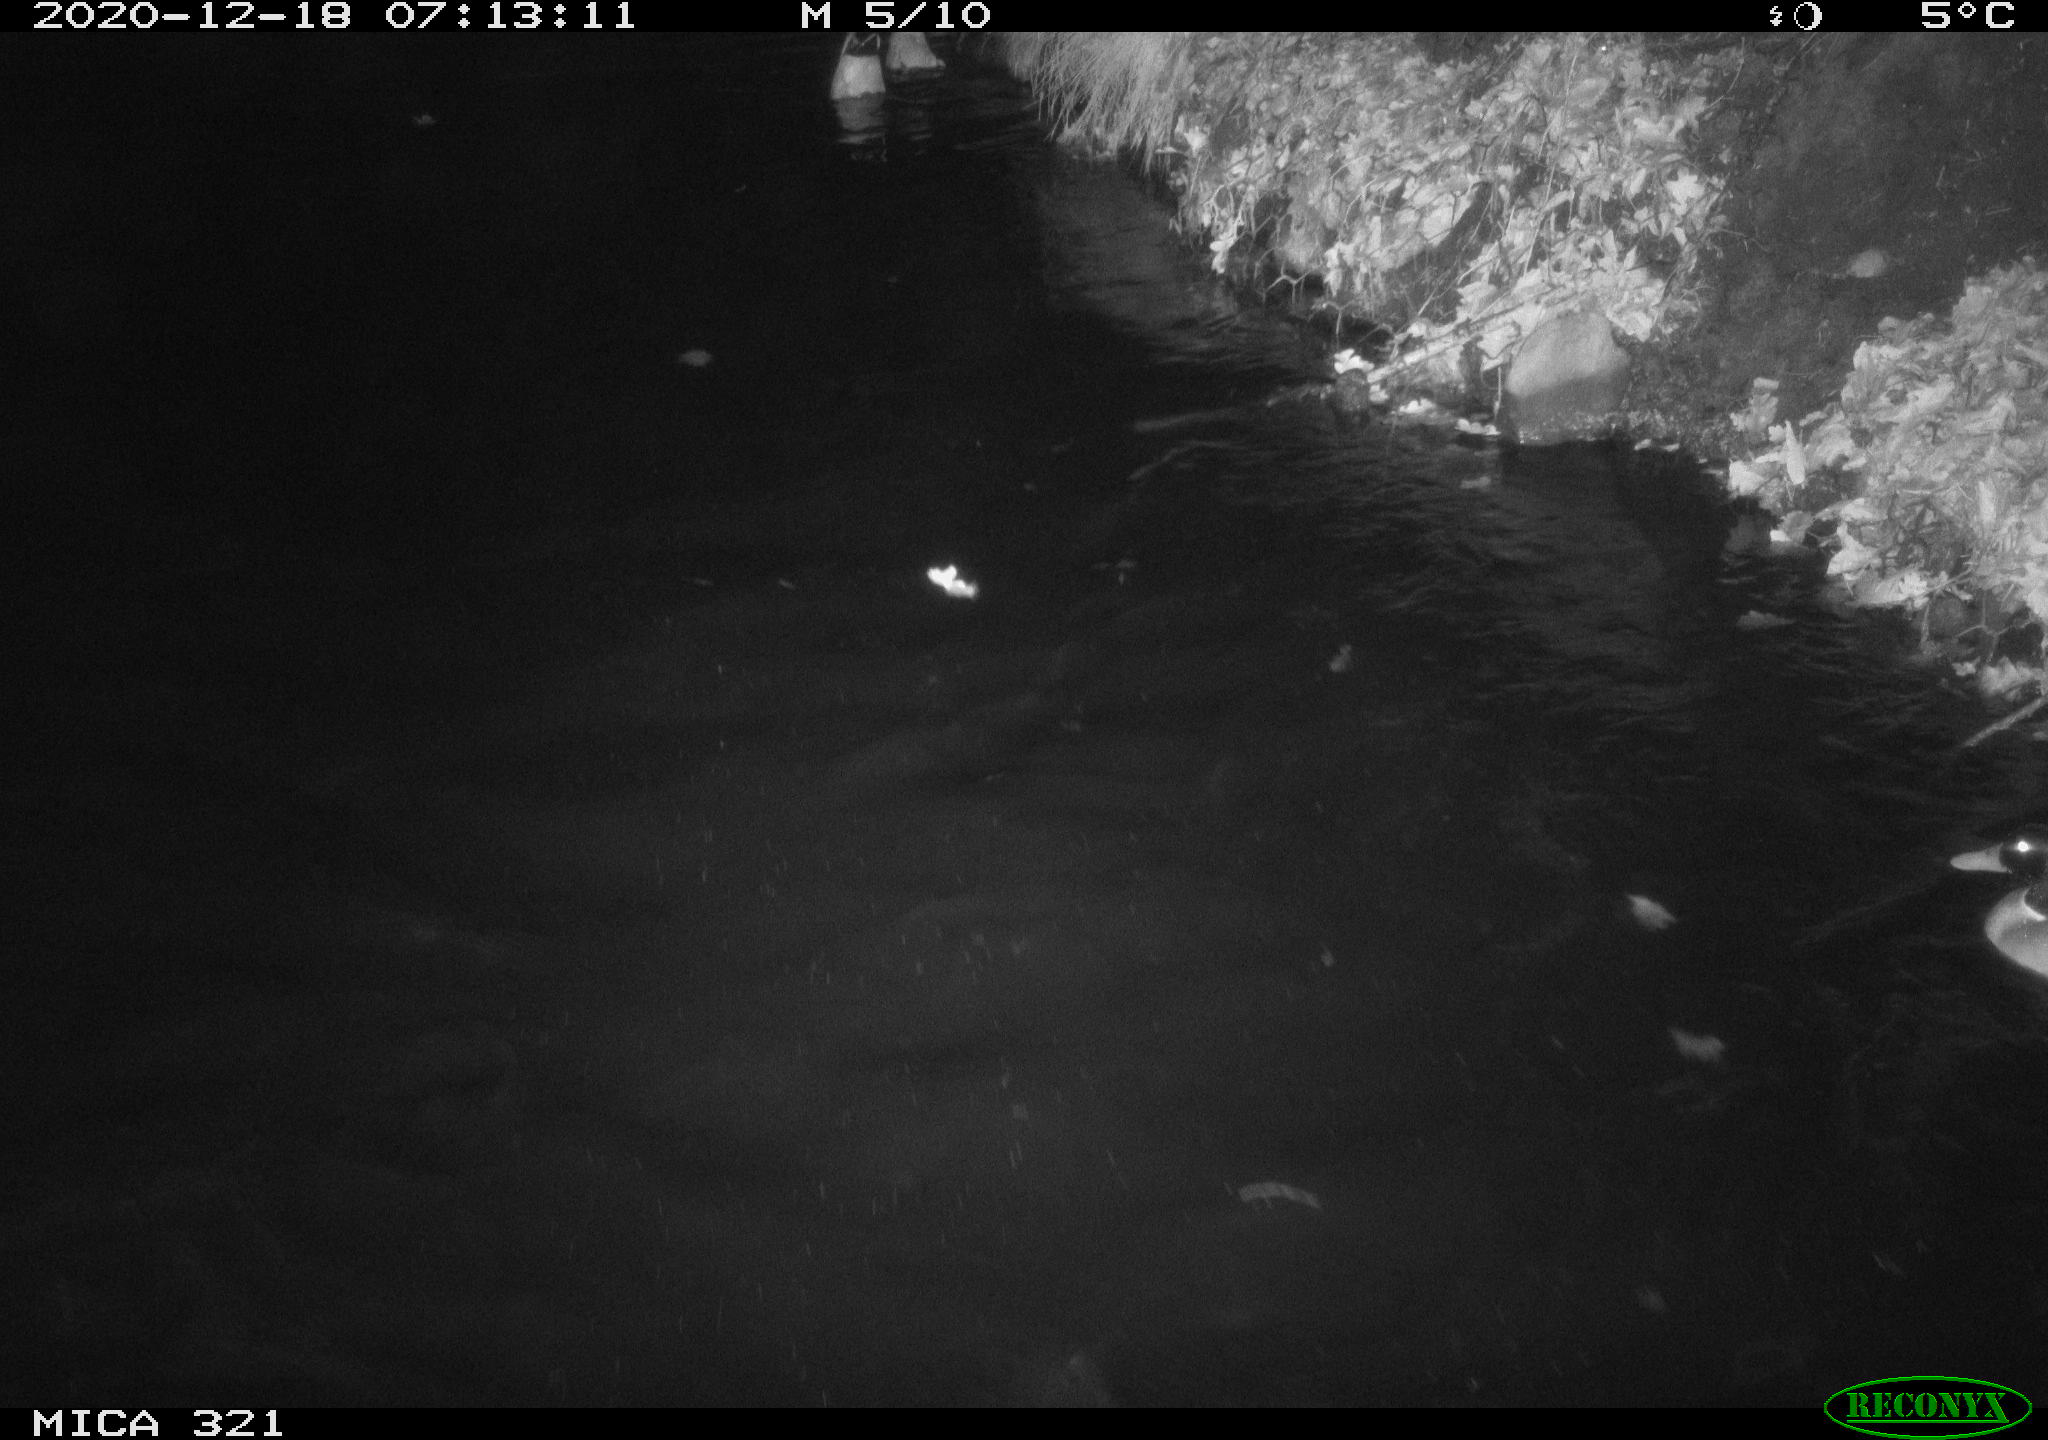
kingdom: Animalia
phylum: Chordata
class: Aves
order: Anseriformes
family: Anatidae
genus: Anas
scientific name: Anas platyrhynchos
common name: Mallard
